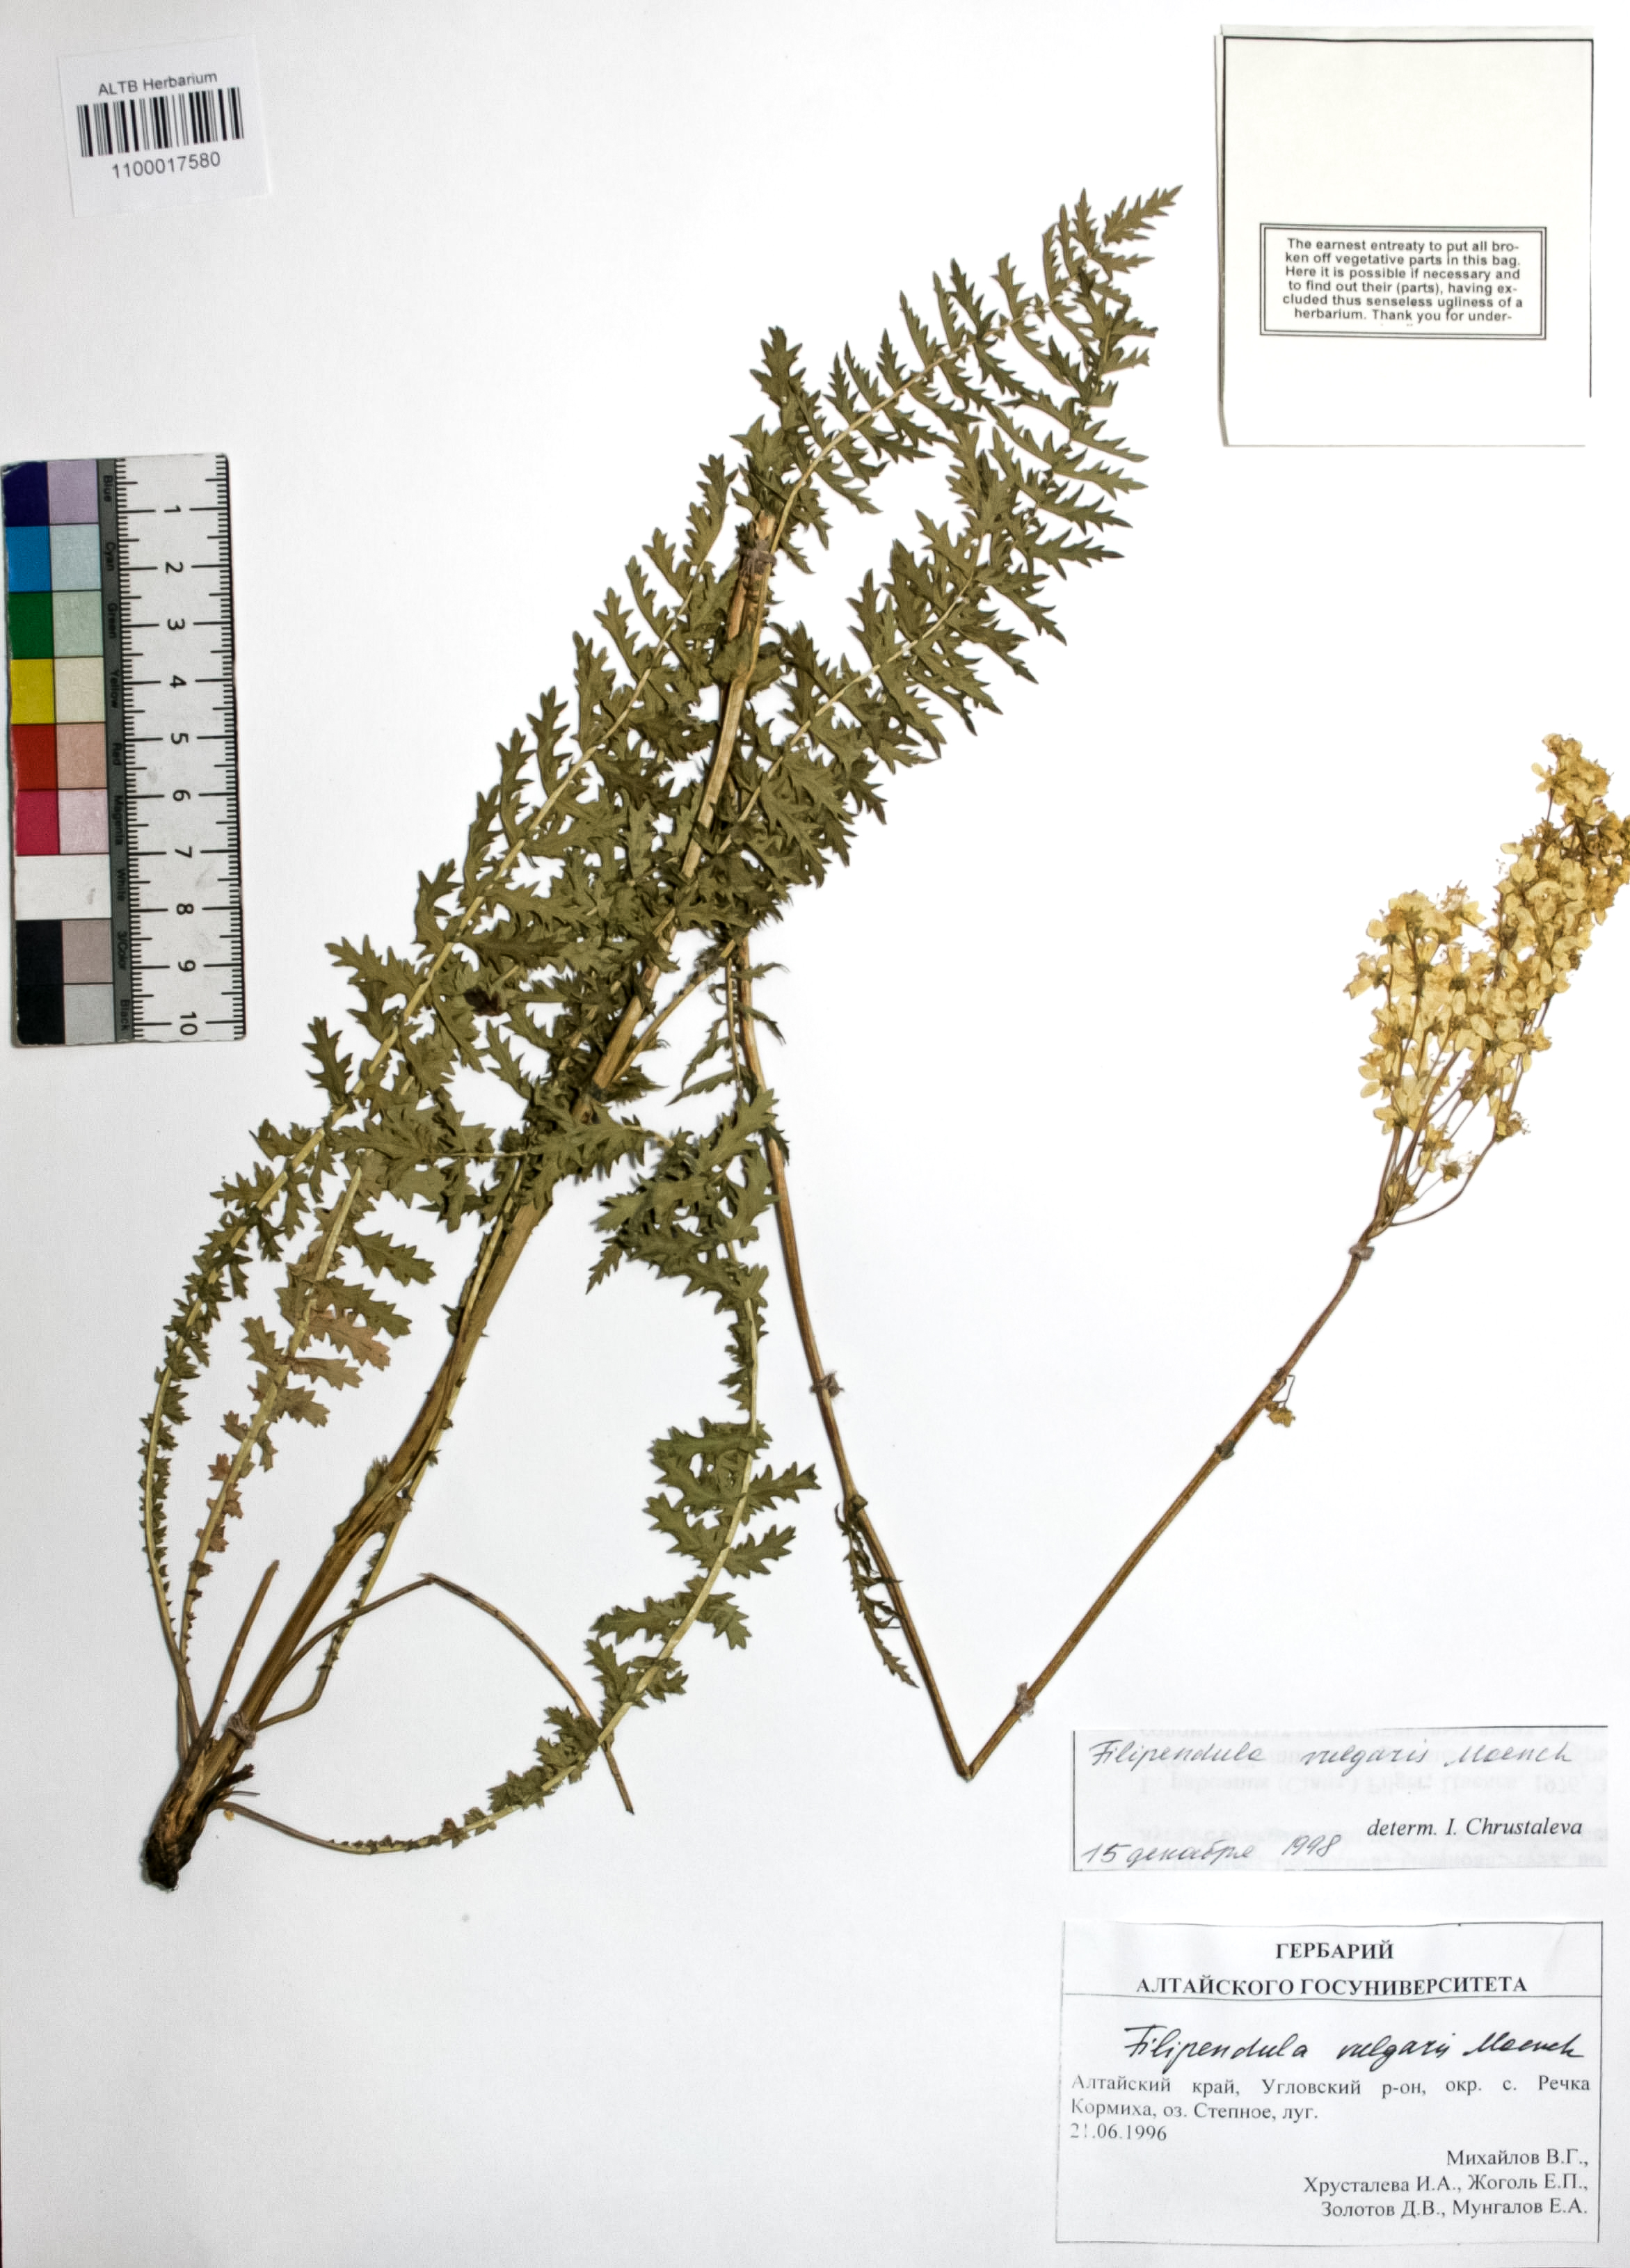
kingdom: Plantae
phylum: Tracheophyta
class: Magnoliopsida
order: Rosales
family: Rosaceae
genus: Filipendula
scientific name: Filipendula vulgaris
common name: Dropwort
